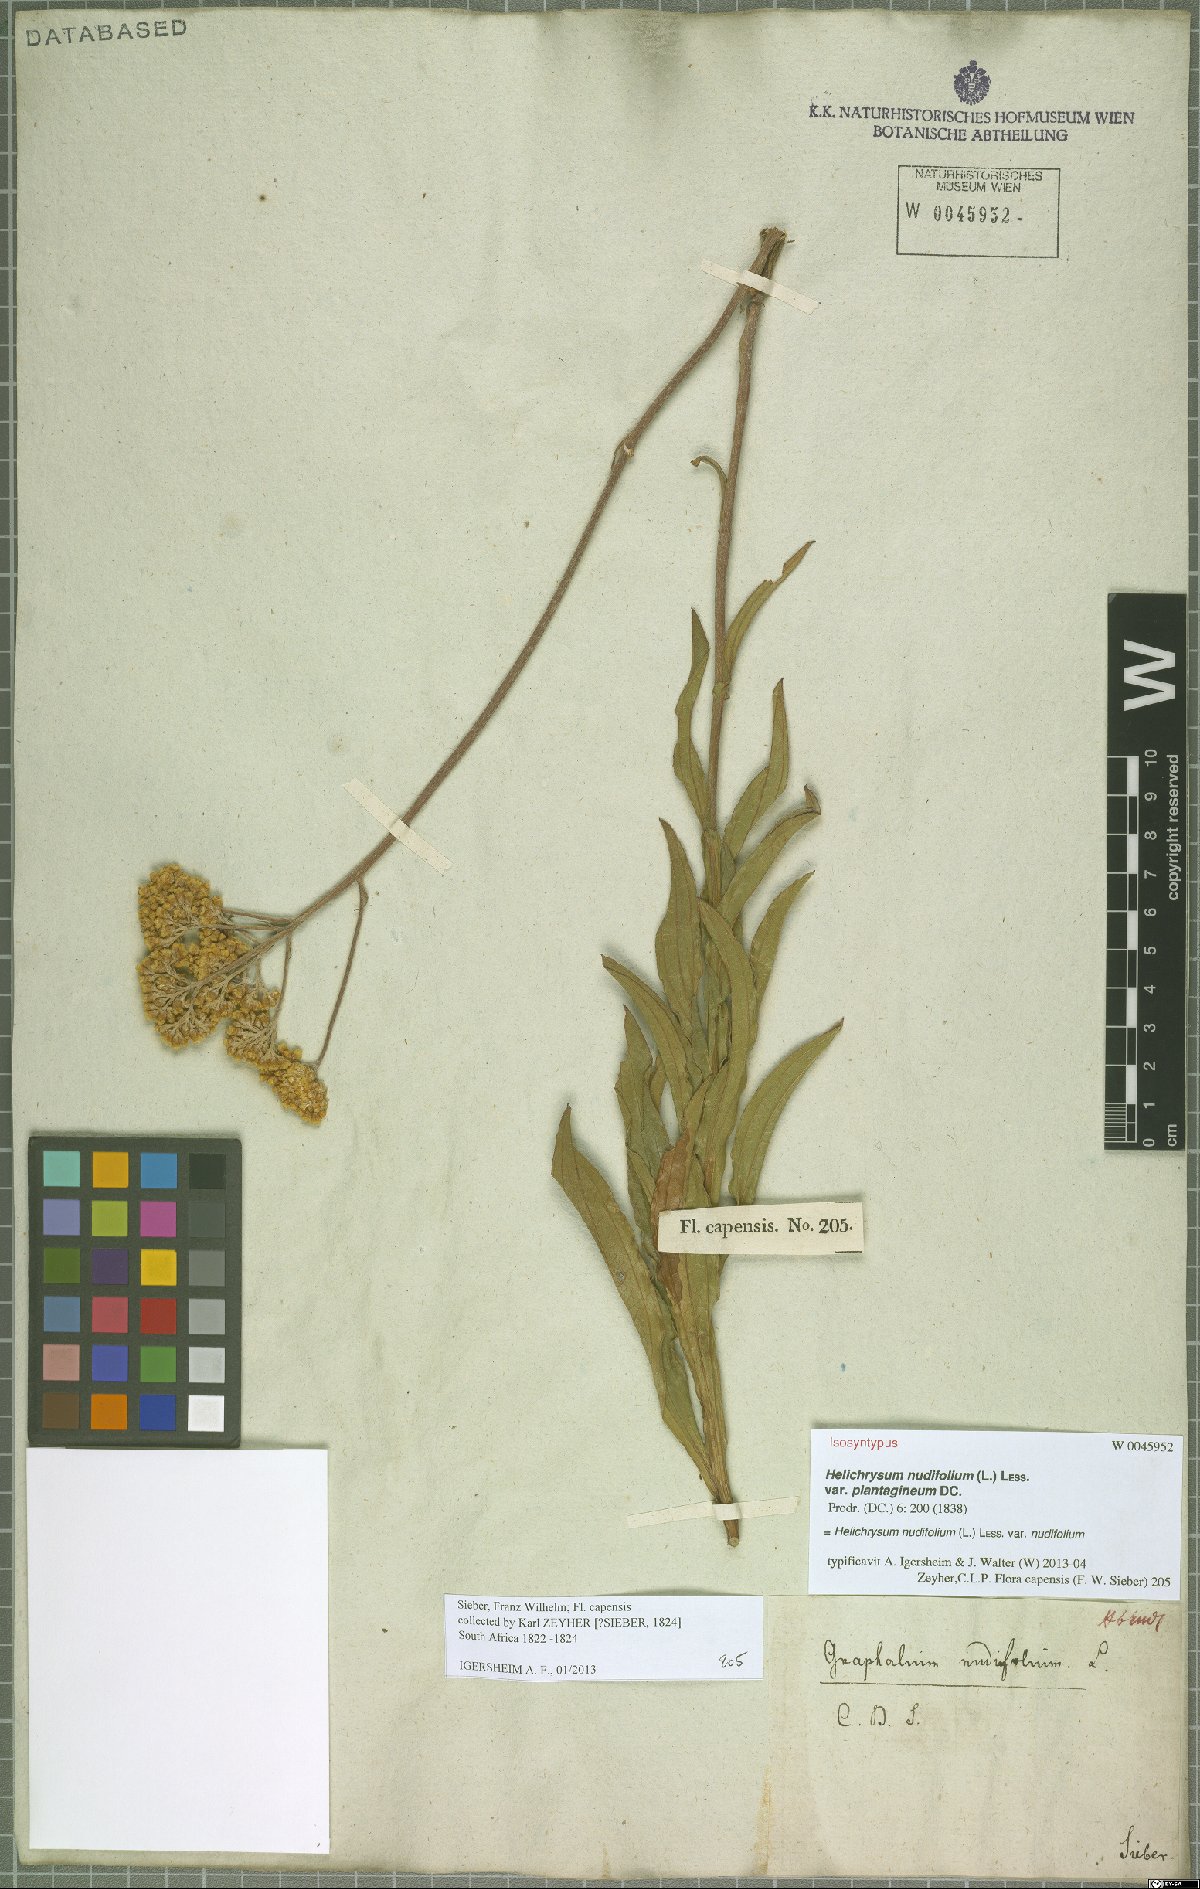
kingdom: Plantae
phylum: Tracheophyta
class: Magnoliopsida
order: Asterales
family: Asteraceae
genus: Helichrysum
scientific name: Helichrysum nudifolium
